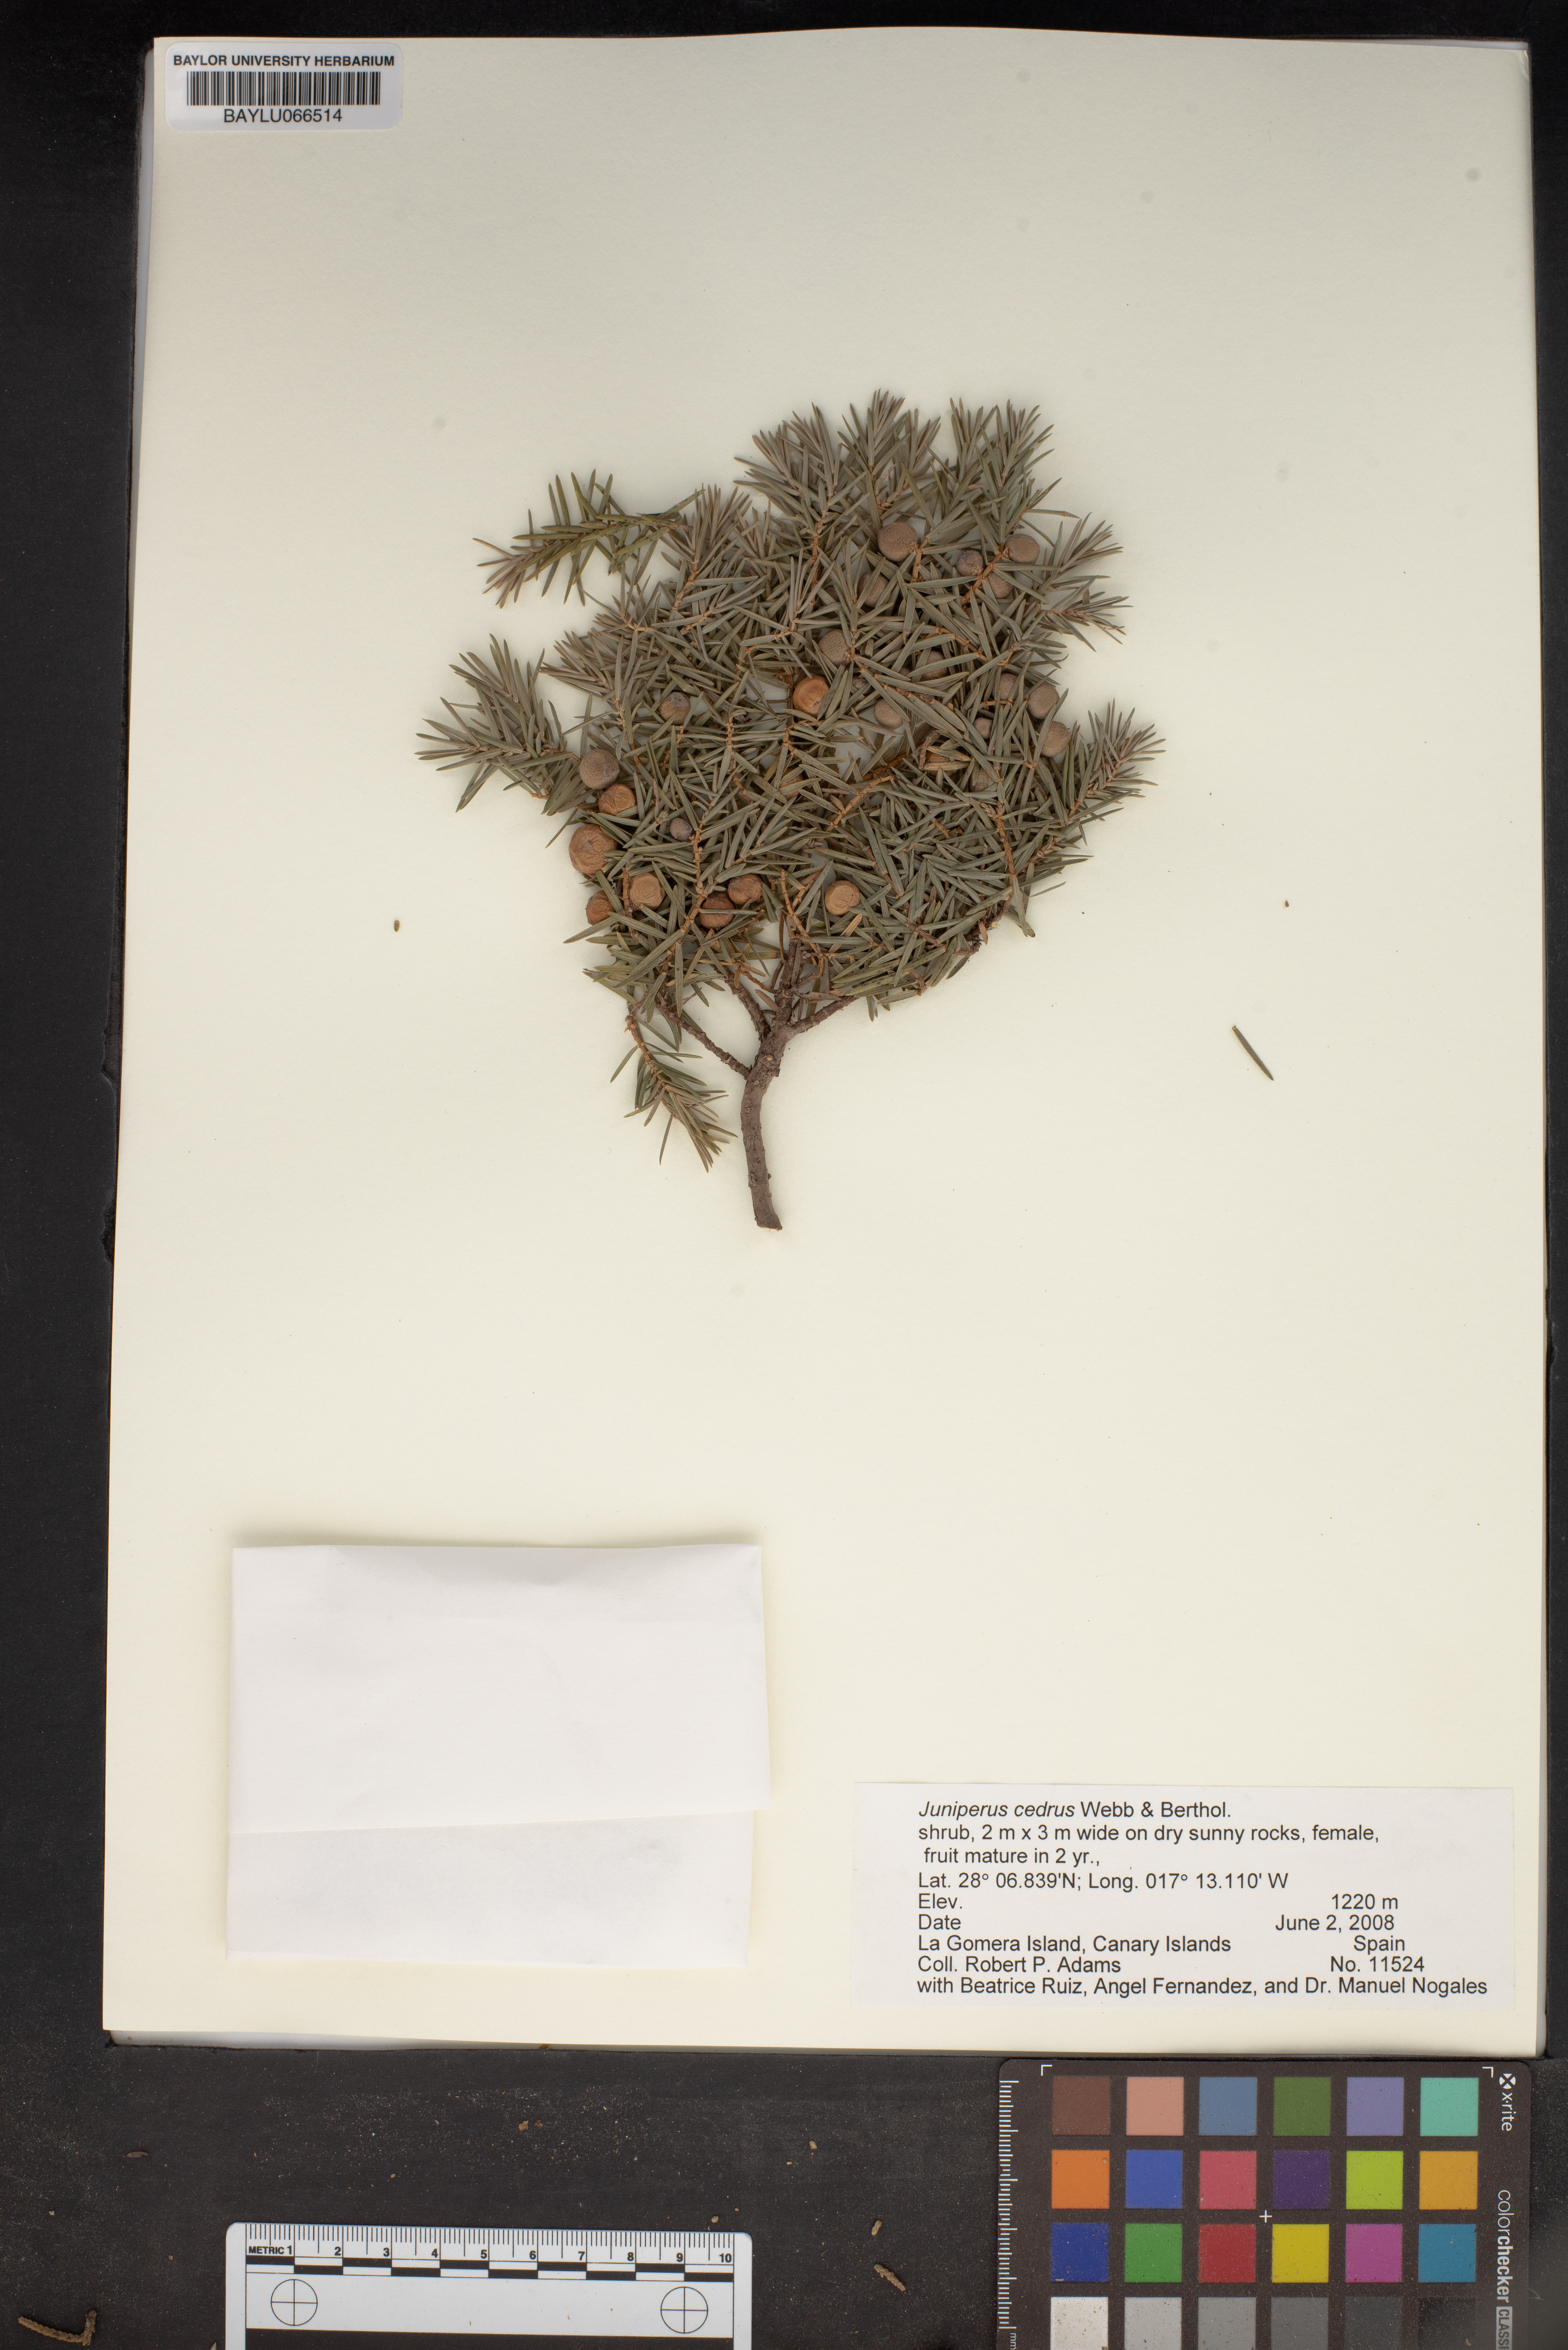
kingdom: Plantae
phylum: Tracheophyta
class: Pinopsida
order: Pinales
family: Cupressaceae
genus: Juniperus
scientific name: Juniperus cedrus
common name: Canary islands juniper
